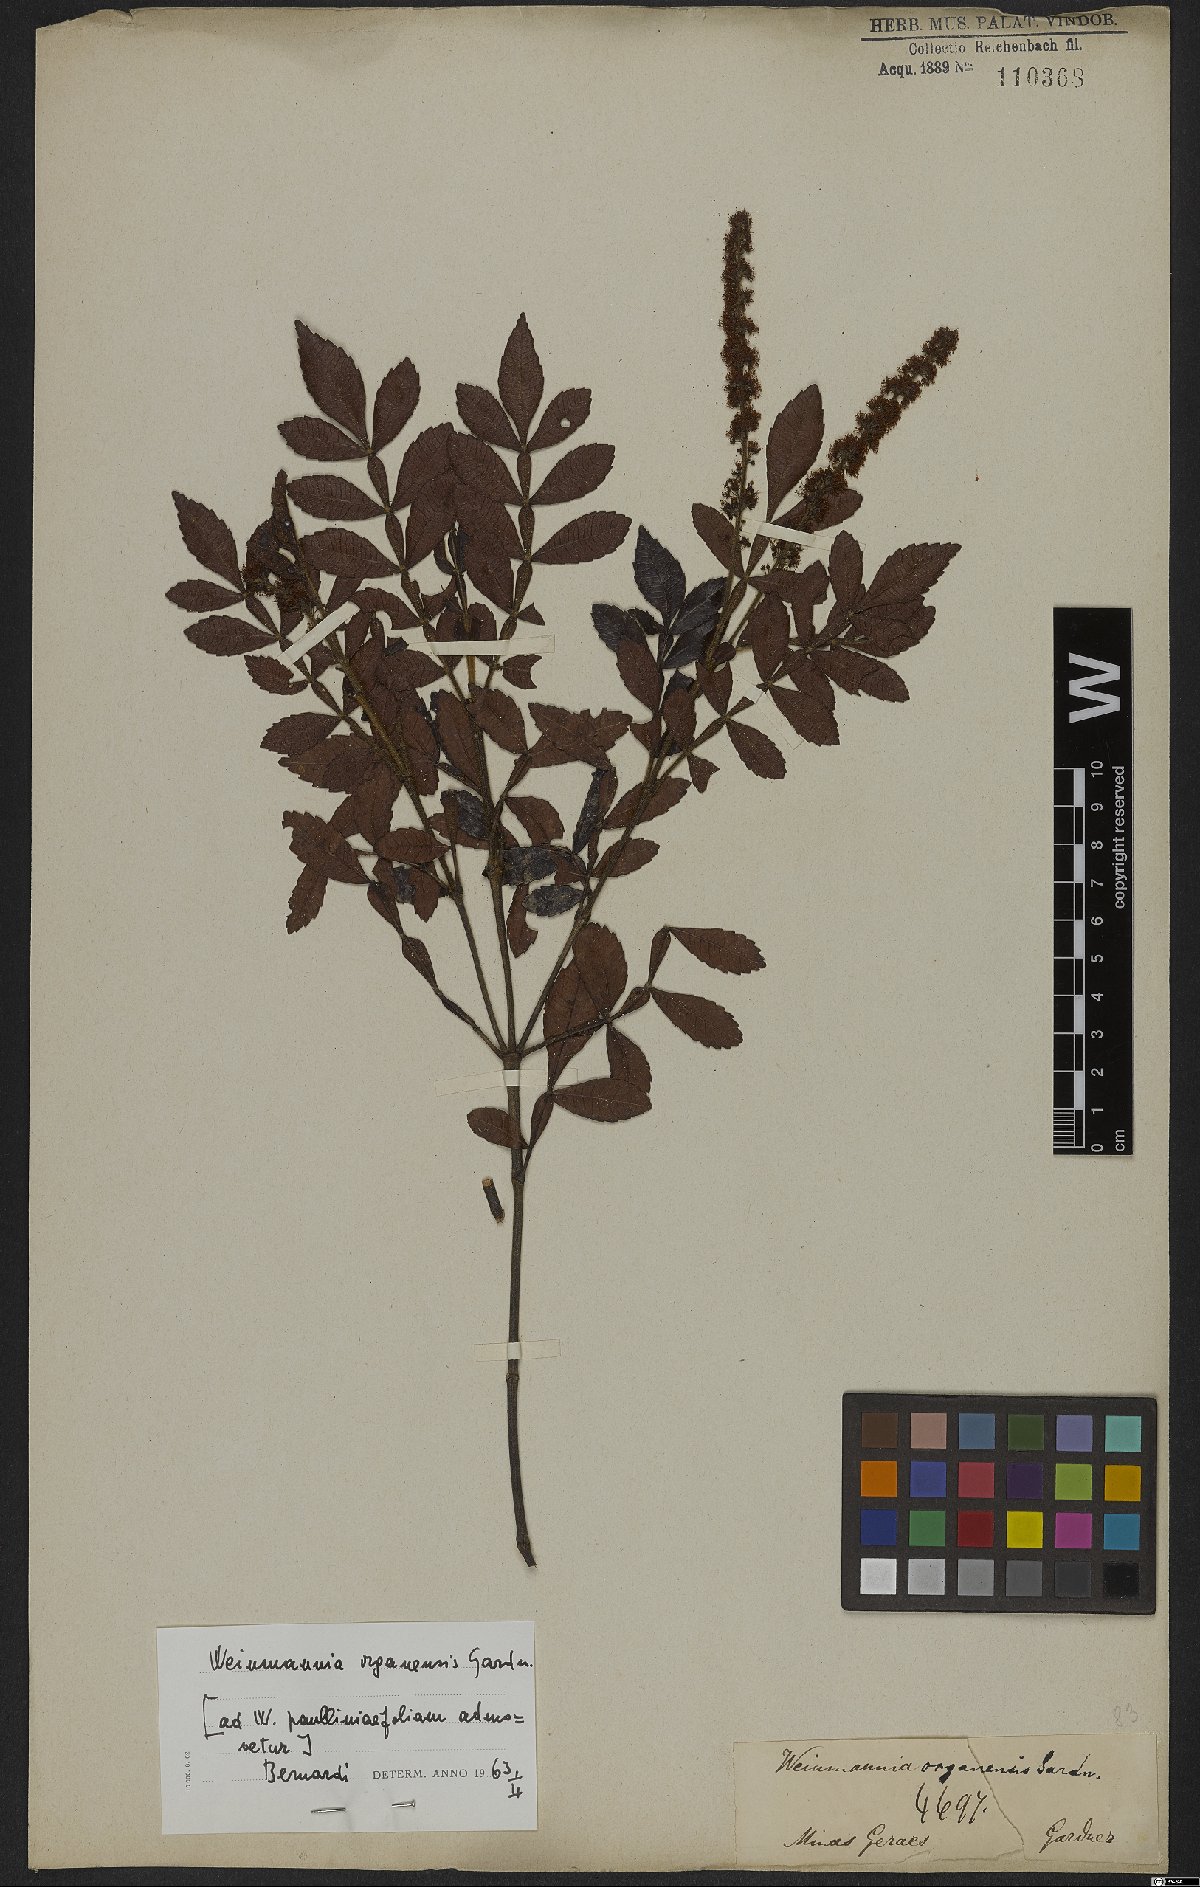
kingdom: Plantae
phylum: Tracheophyta
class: Magnoliopsida
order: Oxalidales
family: Cunoniaceae
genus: Weinmannia
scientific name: Weinmannia organensis
